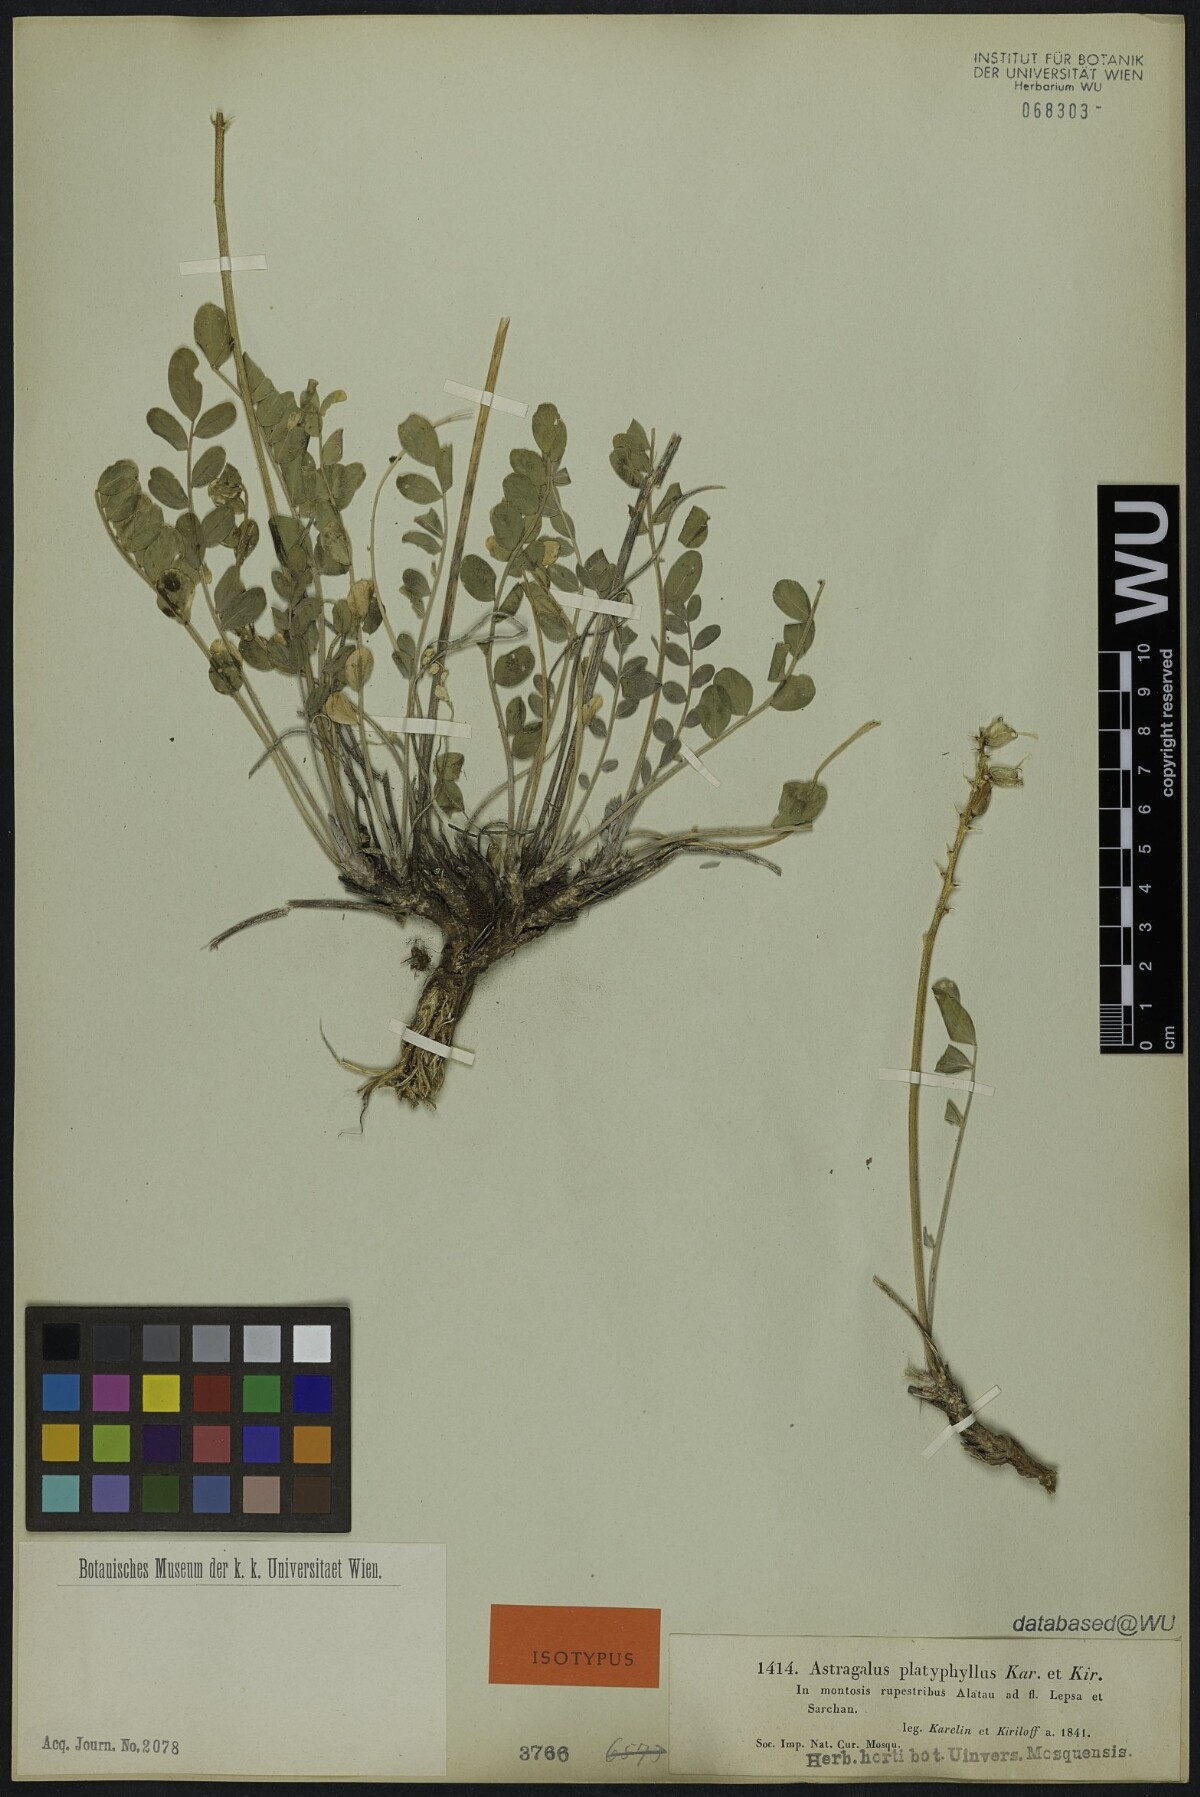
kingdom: Plantae
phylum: Tracheophyta
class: Magnoliopsida
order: Fabales
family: Fabaceae
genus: Astragalus
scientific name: Astragalus platyphyllus
